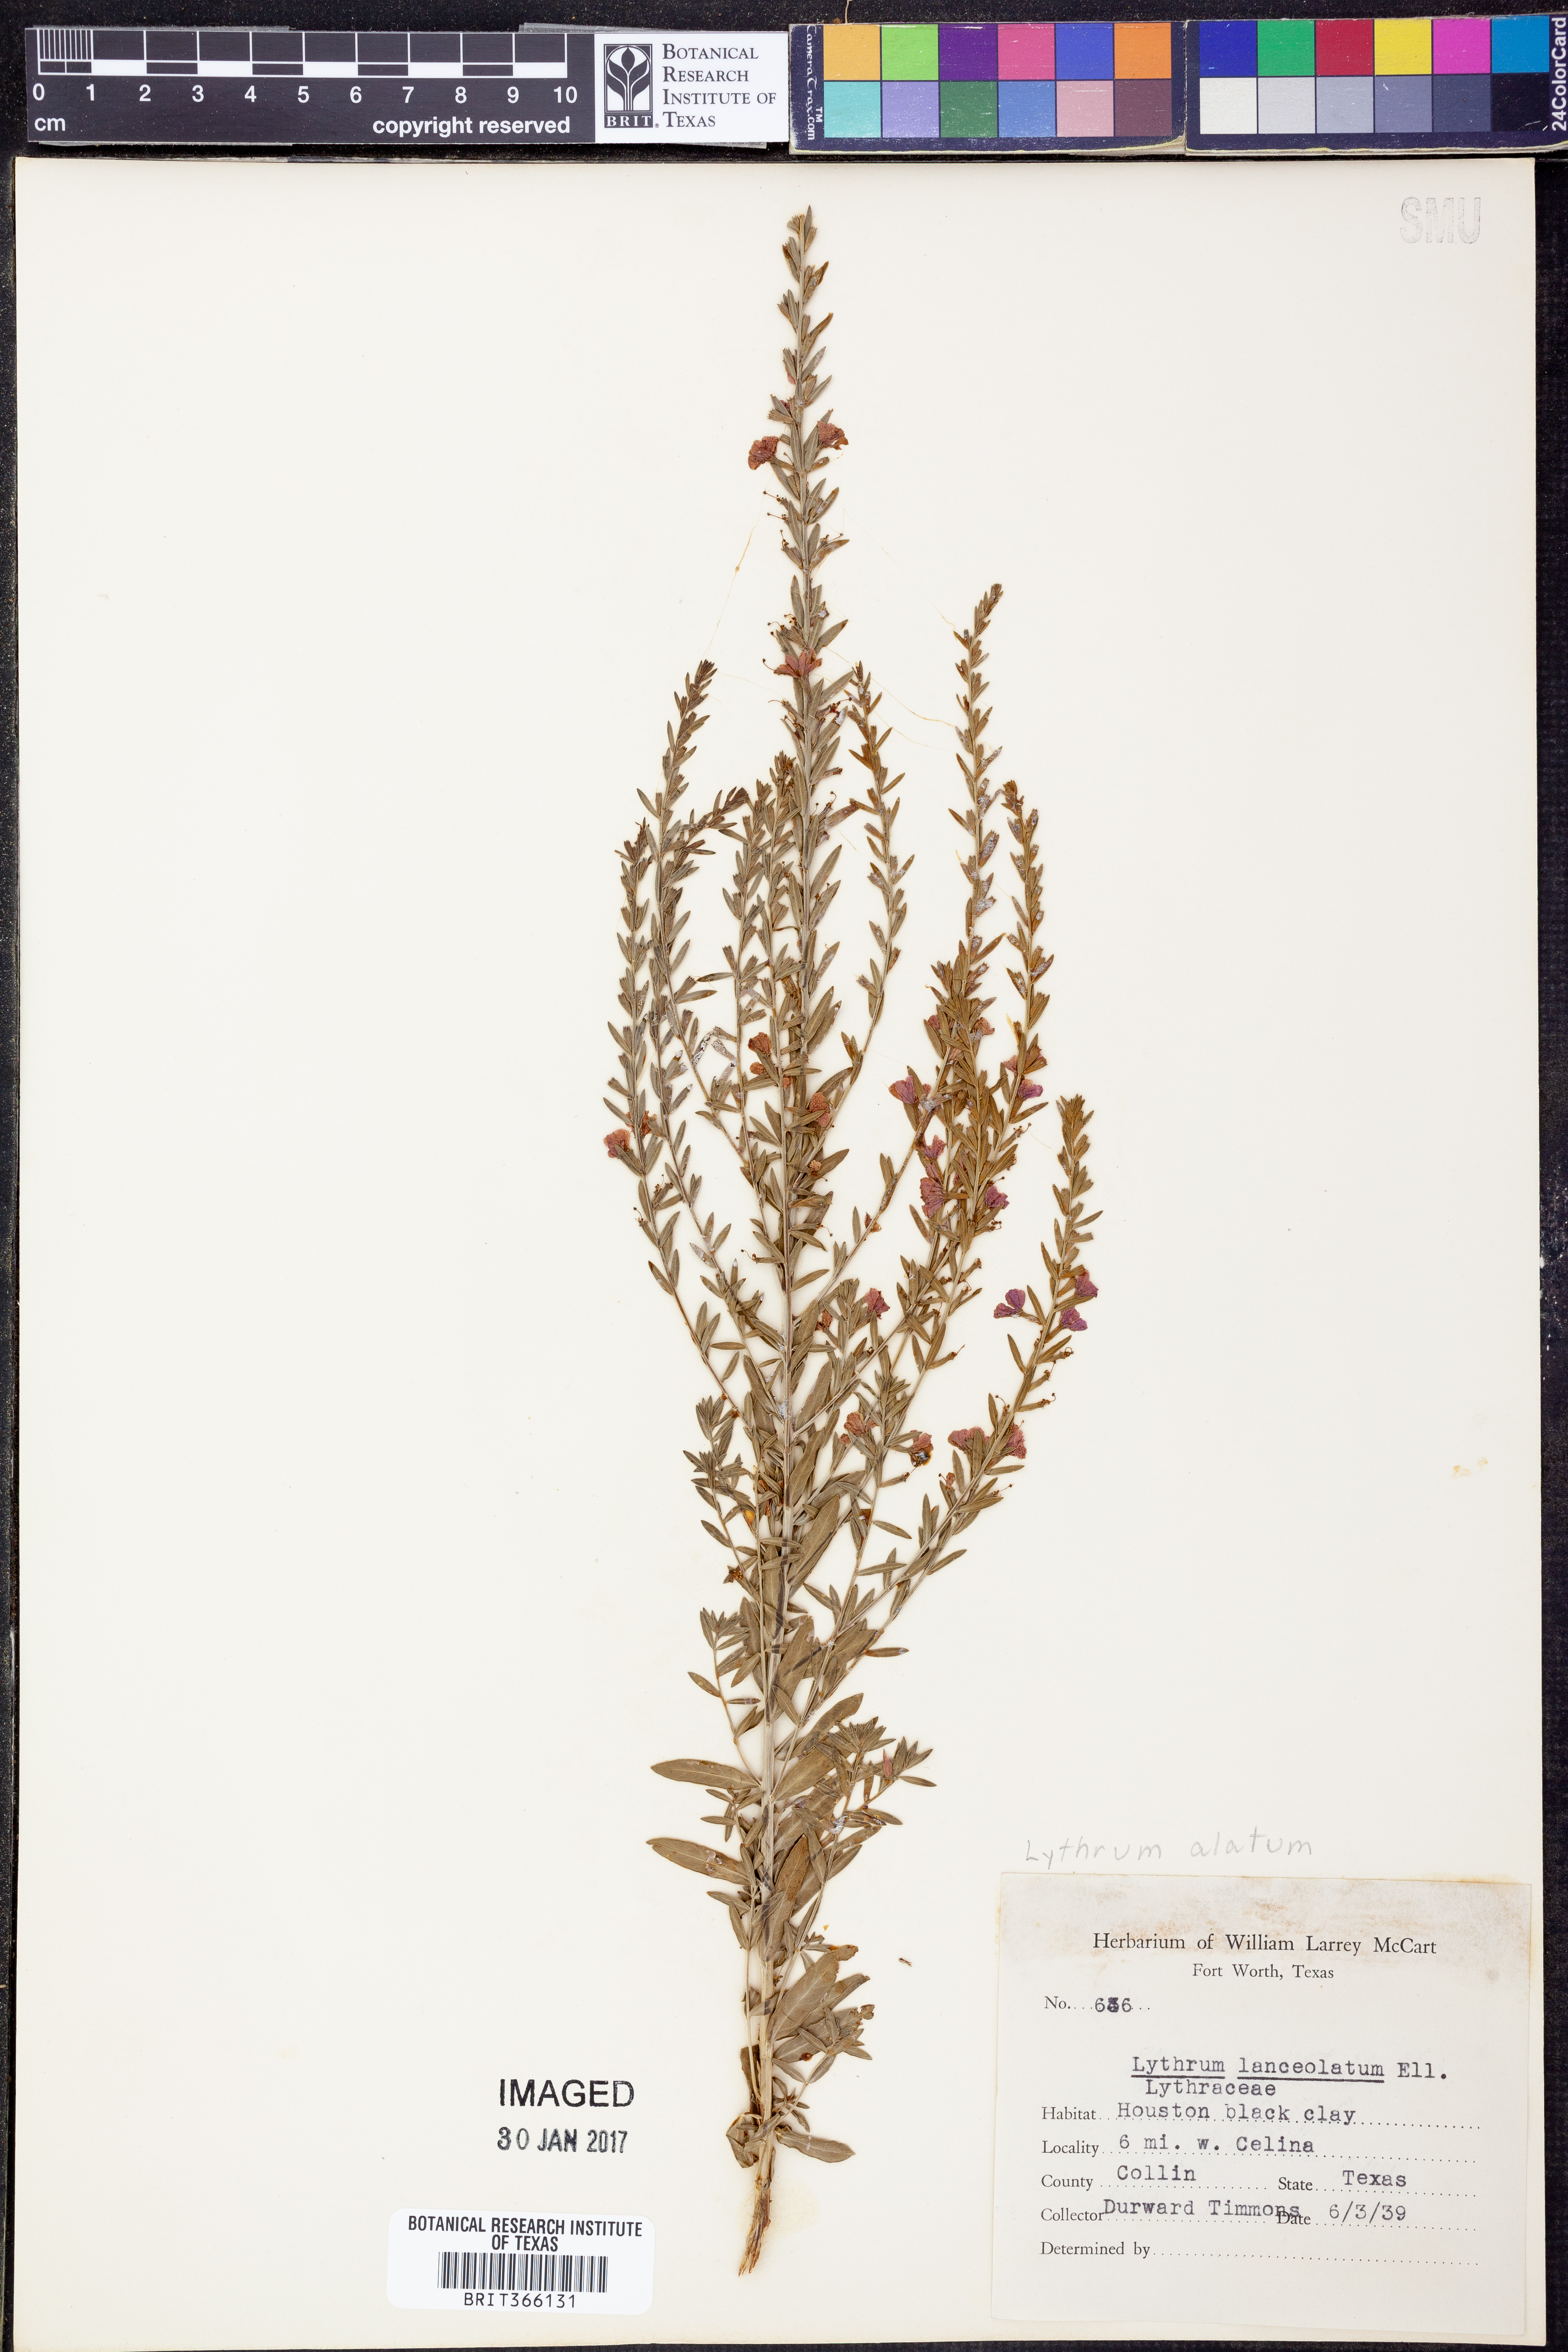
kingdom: Plantae
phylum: Tracheophyta
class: Magnoliopsida
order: Myrtales
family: Lythraceae
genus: Lythrum
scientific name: Lythrum alatum
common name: Winged loosestrife
